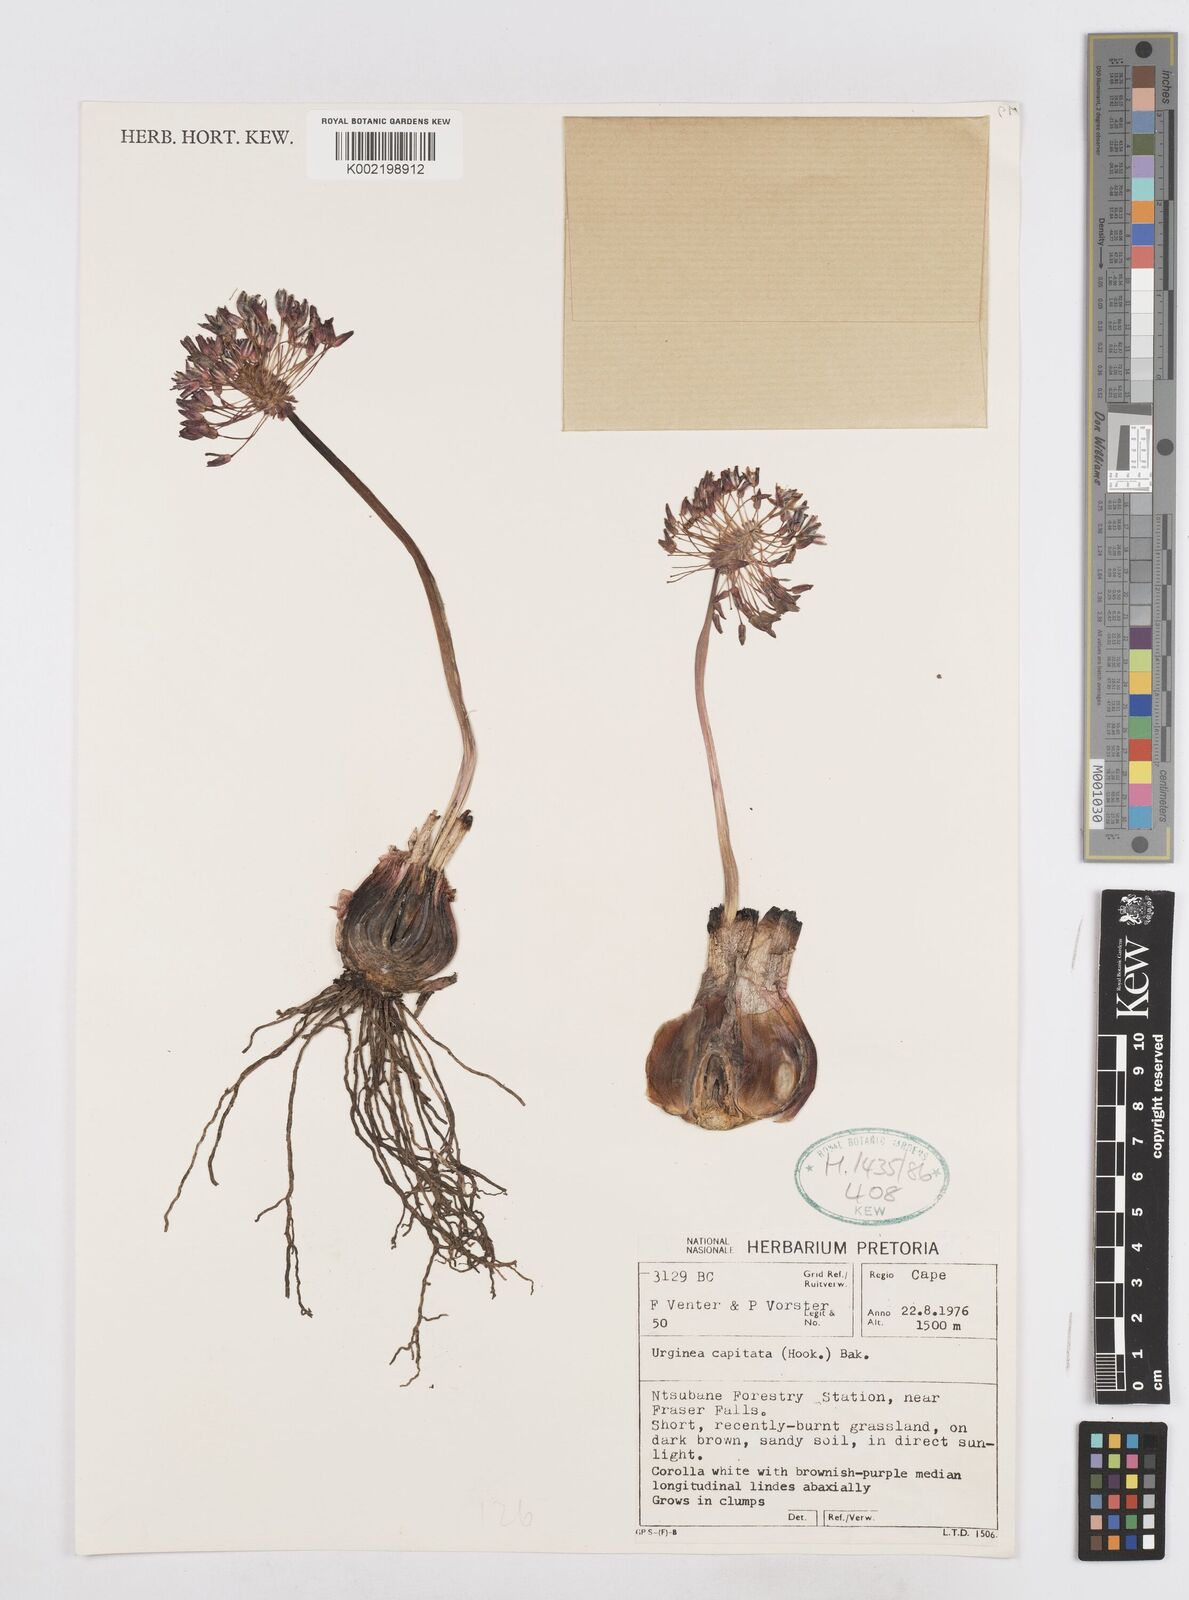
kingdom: Plantae
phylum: Tracheophyta
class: Liliopsida
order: Asparagales
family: Asparagaceae
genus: Drimia
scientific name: Drimia sphaerocephala
